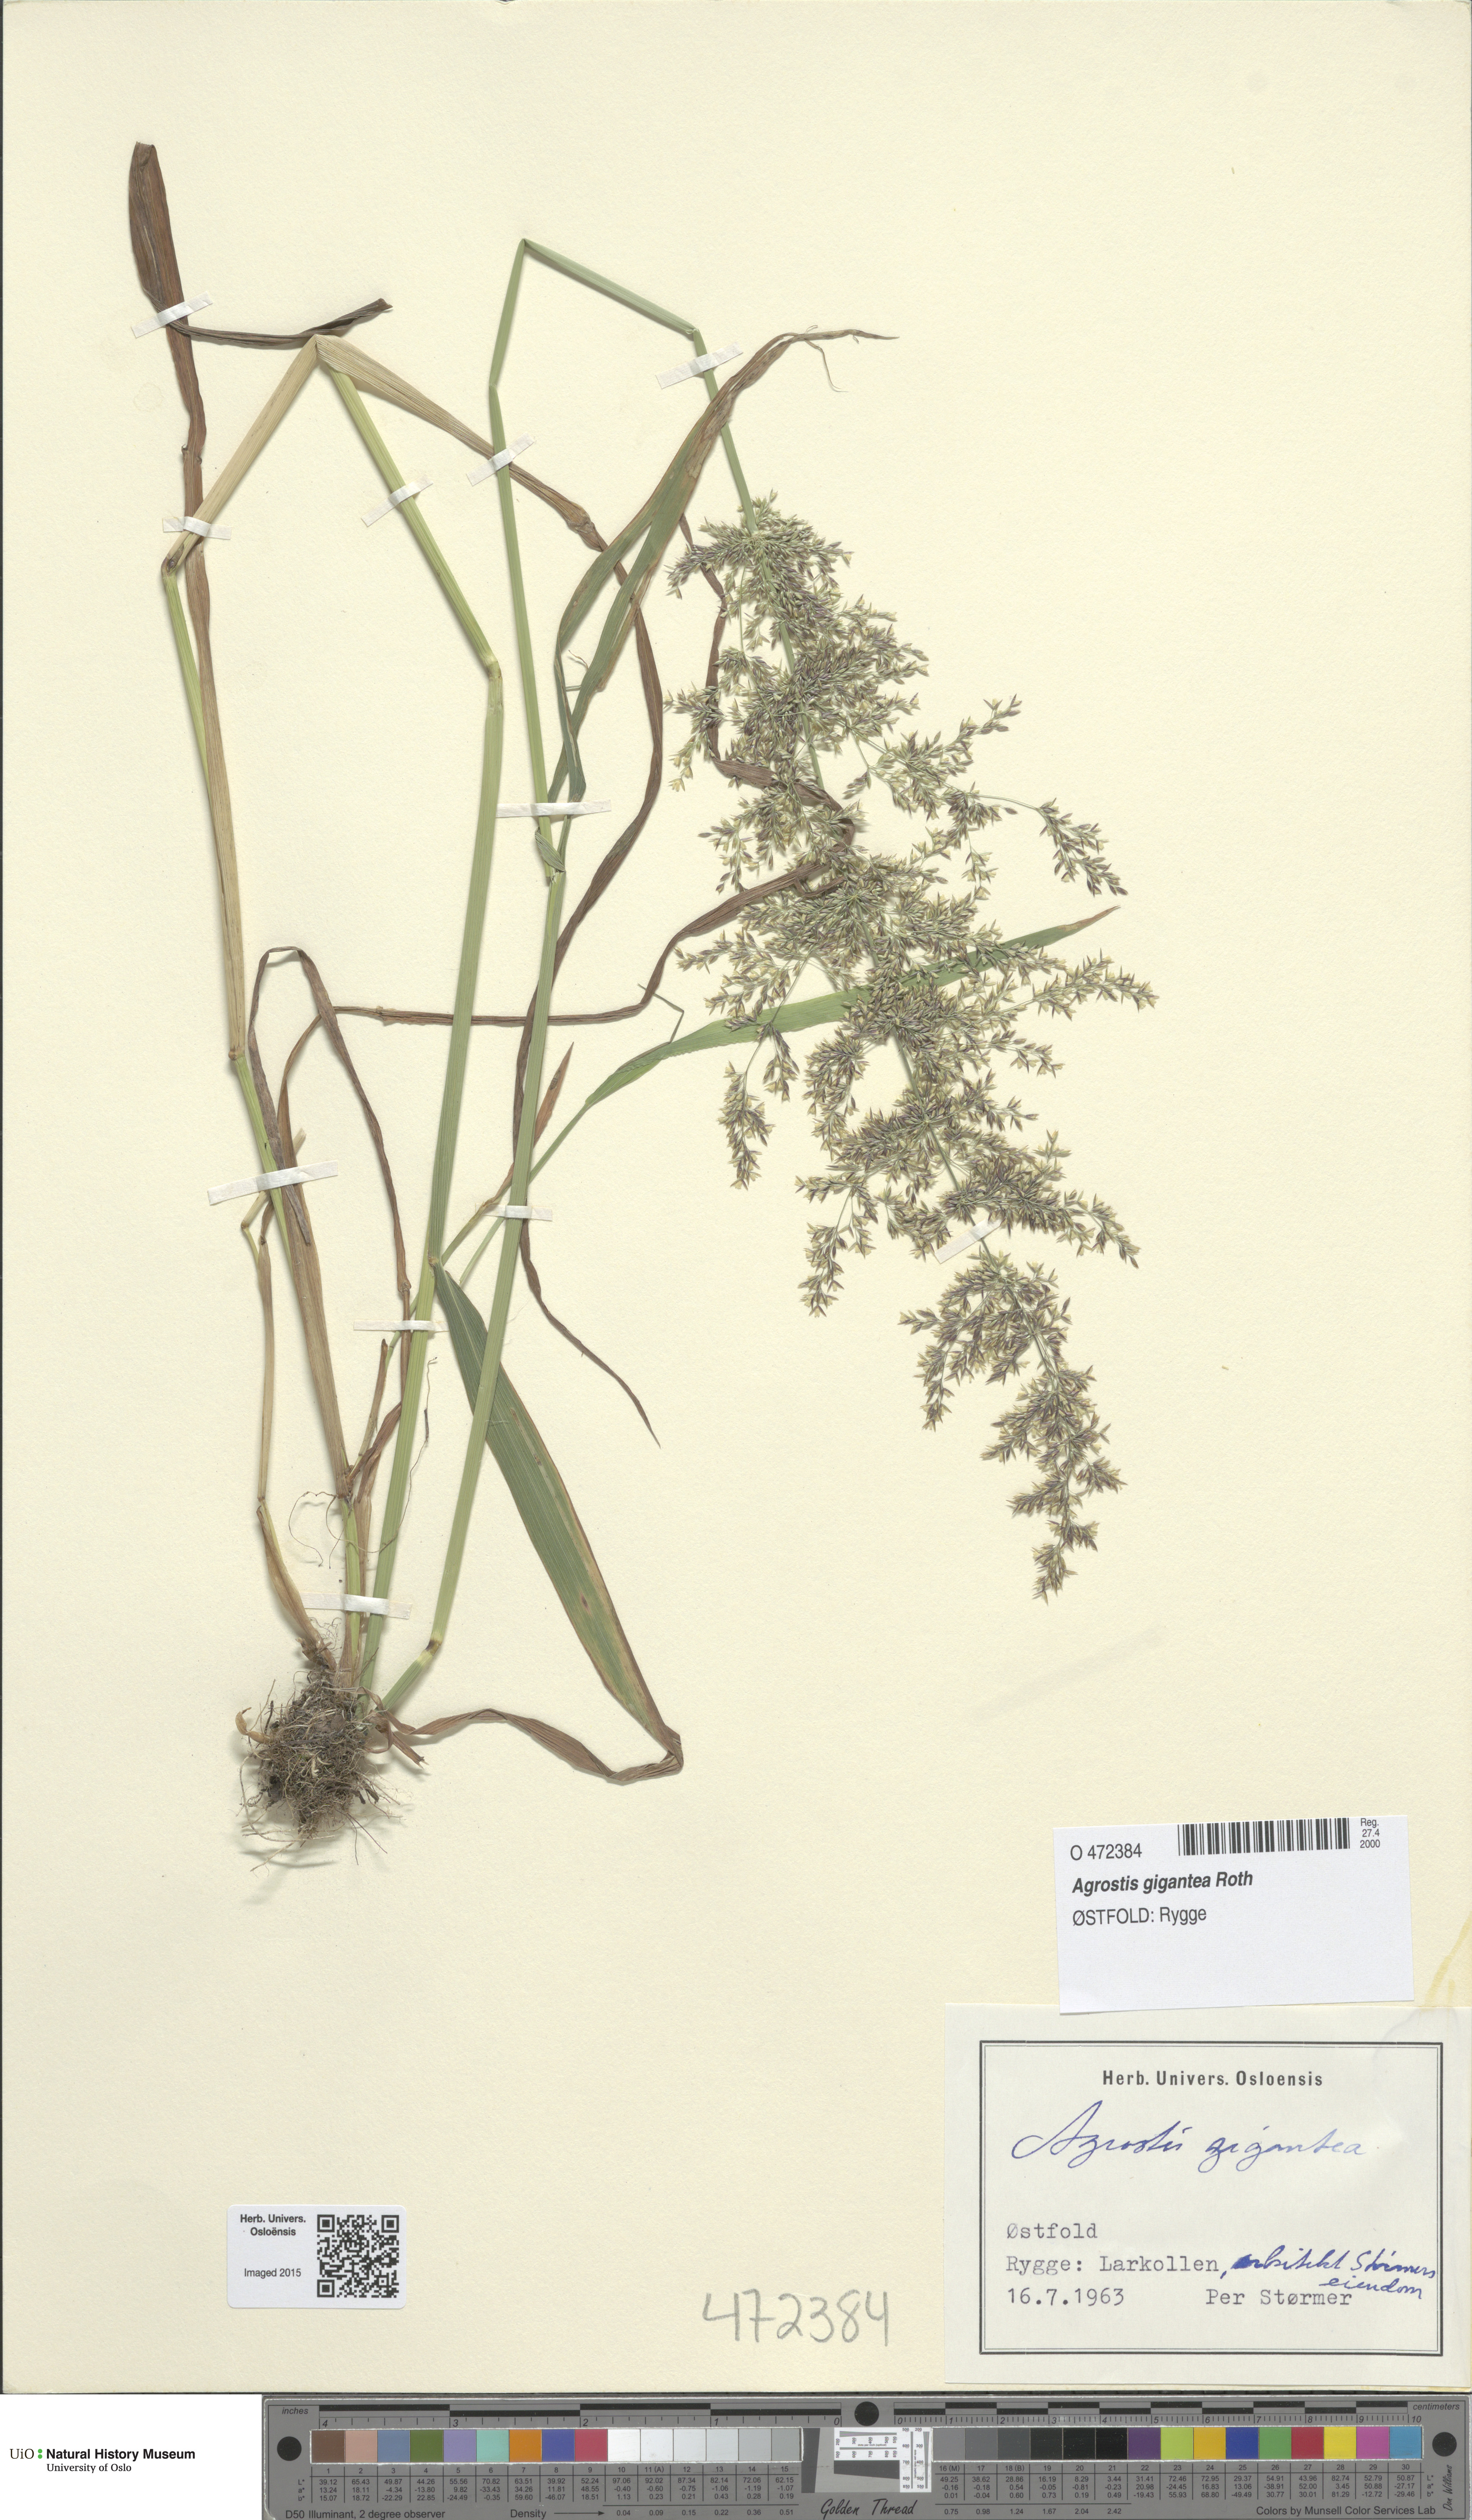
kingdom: Plantae
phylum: Tracheophyta
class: Liliopsida
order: Poales
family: Poaceae
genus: Agrostis
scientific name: Agrostis gigantea
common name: Black bent
